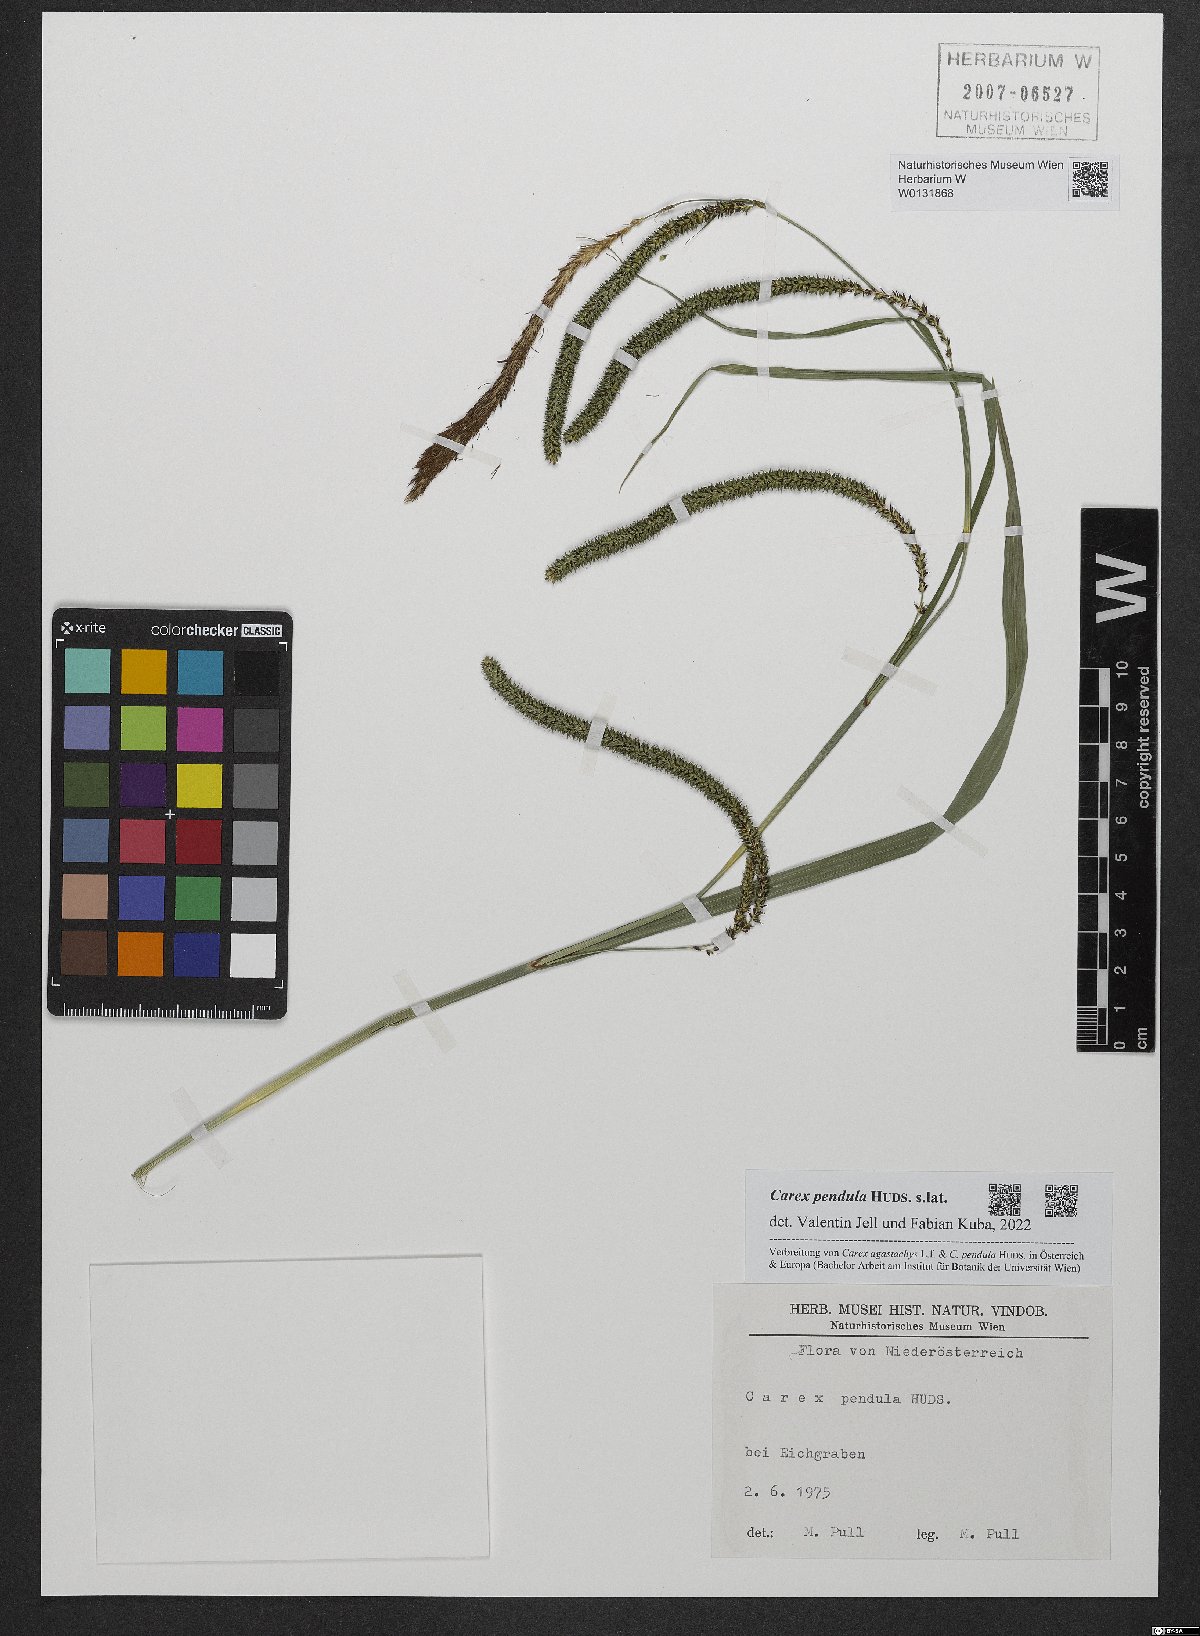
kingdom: Plantae
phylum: Tracheophyta
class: Liliopsida
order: Poales
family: Cyperaceae
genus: Carex
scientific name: Carex pendula
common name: Pendulous sedge
